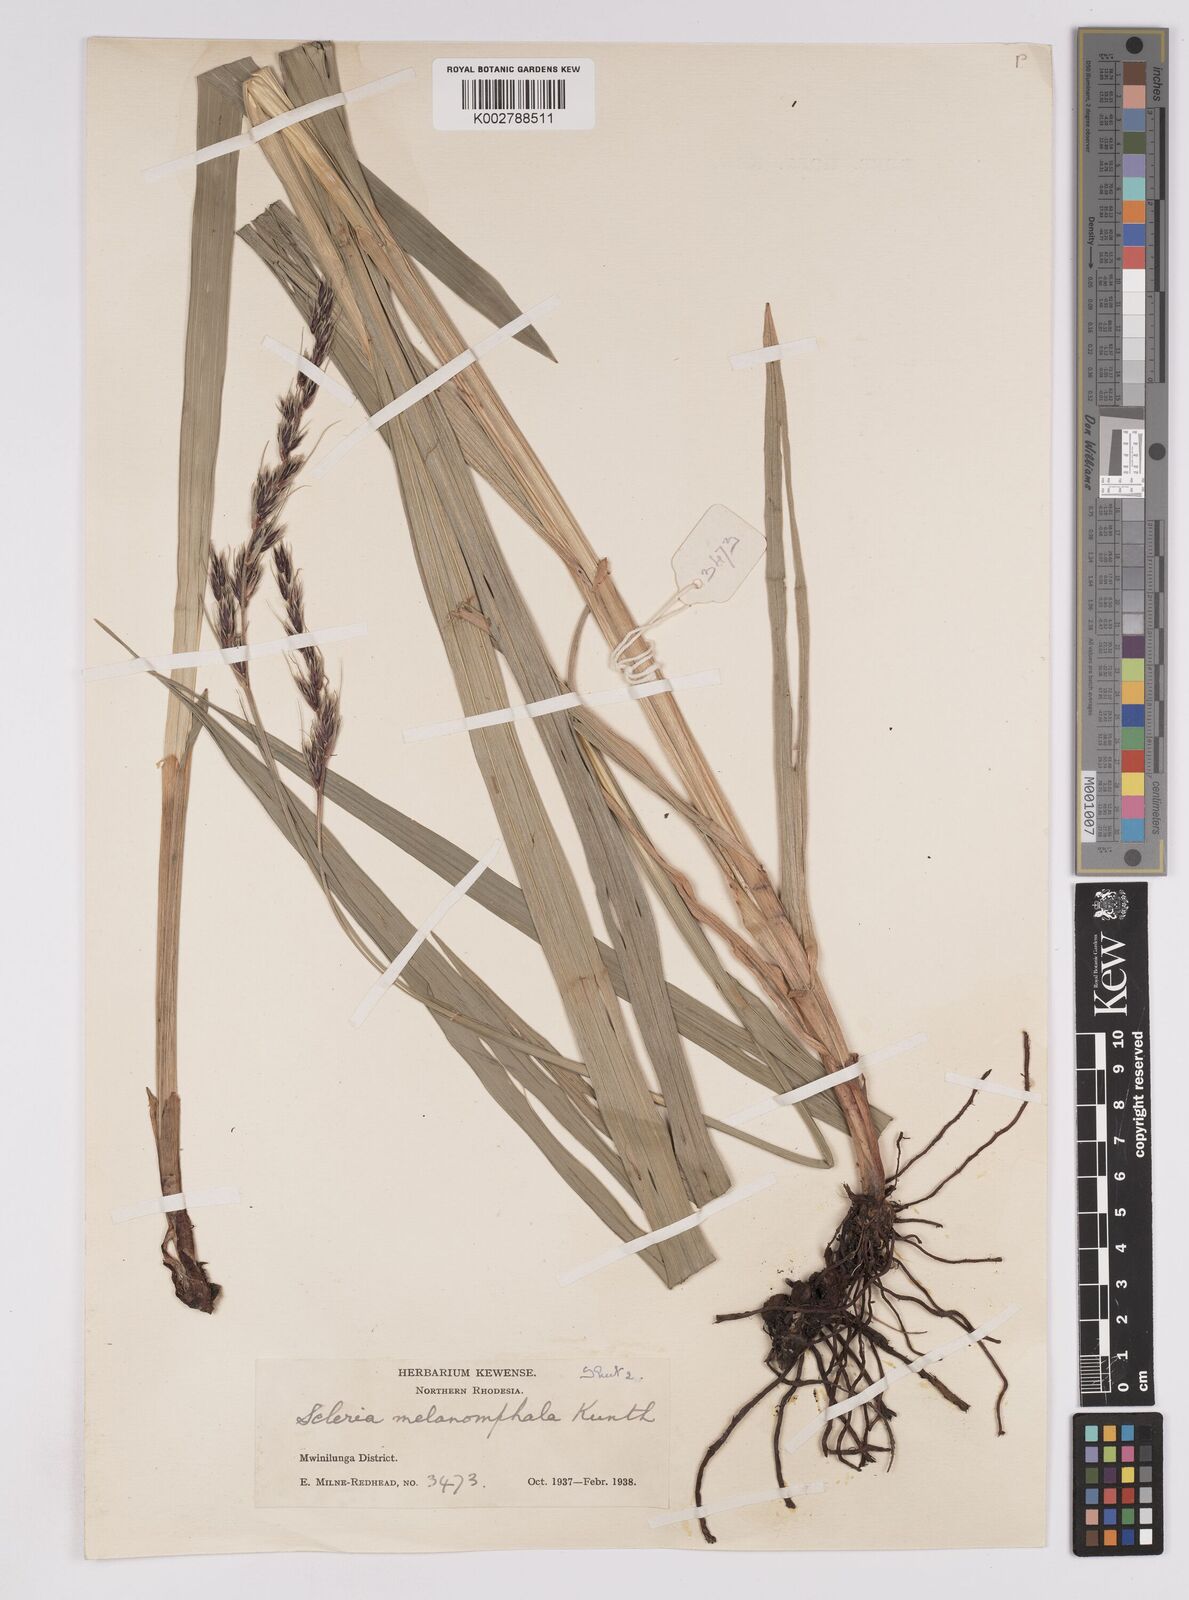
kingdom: Plantae
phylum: Tracheophyta
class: Liliopsida
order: Poales
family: Cyperaceae
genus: Scleria
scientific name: Scleria melanomphala
